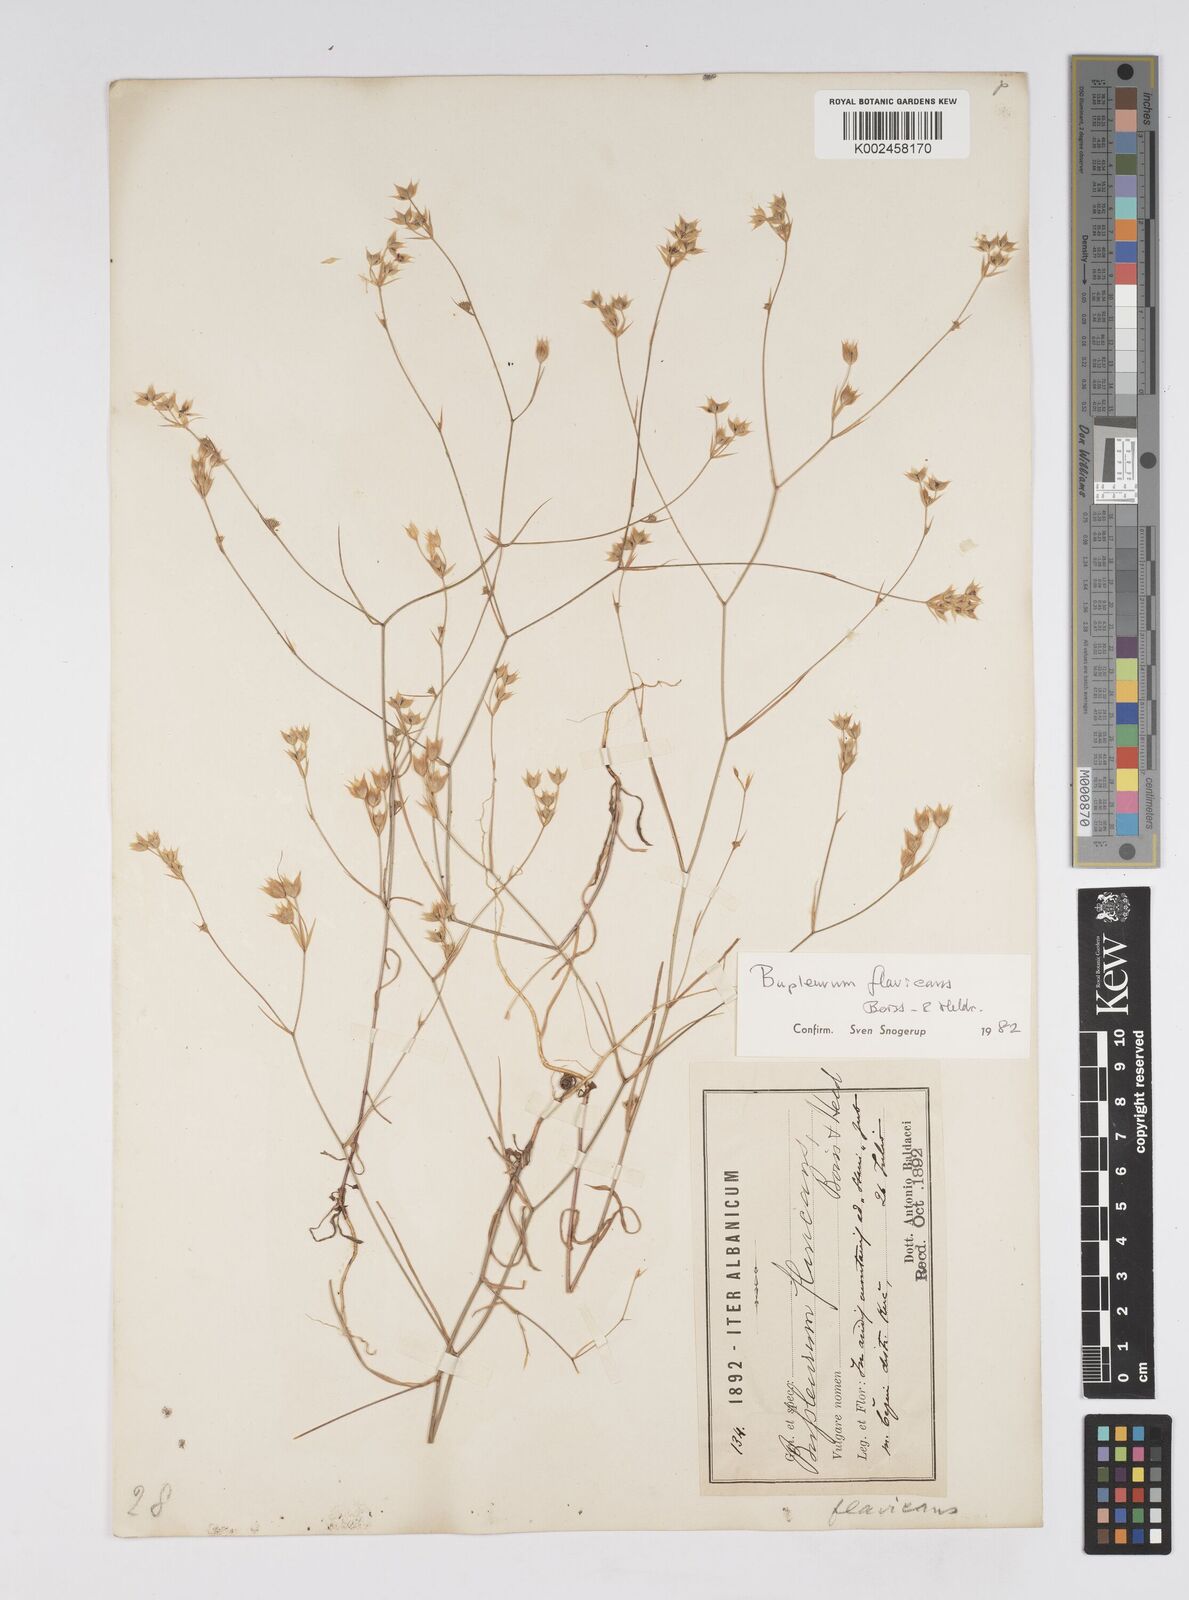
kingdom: Plantae
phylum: Tracheophyta
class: Magnoliopsida
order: Apiales
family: Apiaceae
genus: Bupleurum
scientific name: Bupleurum flavicans
